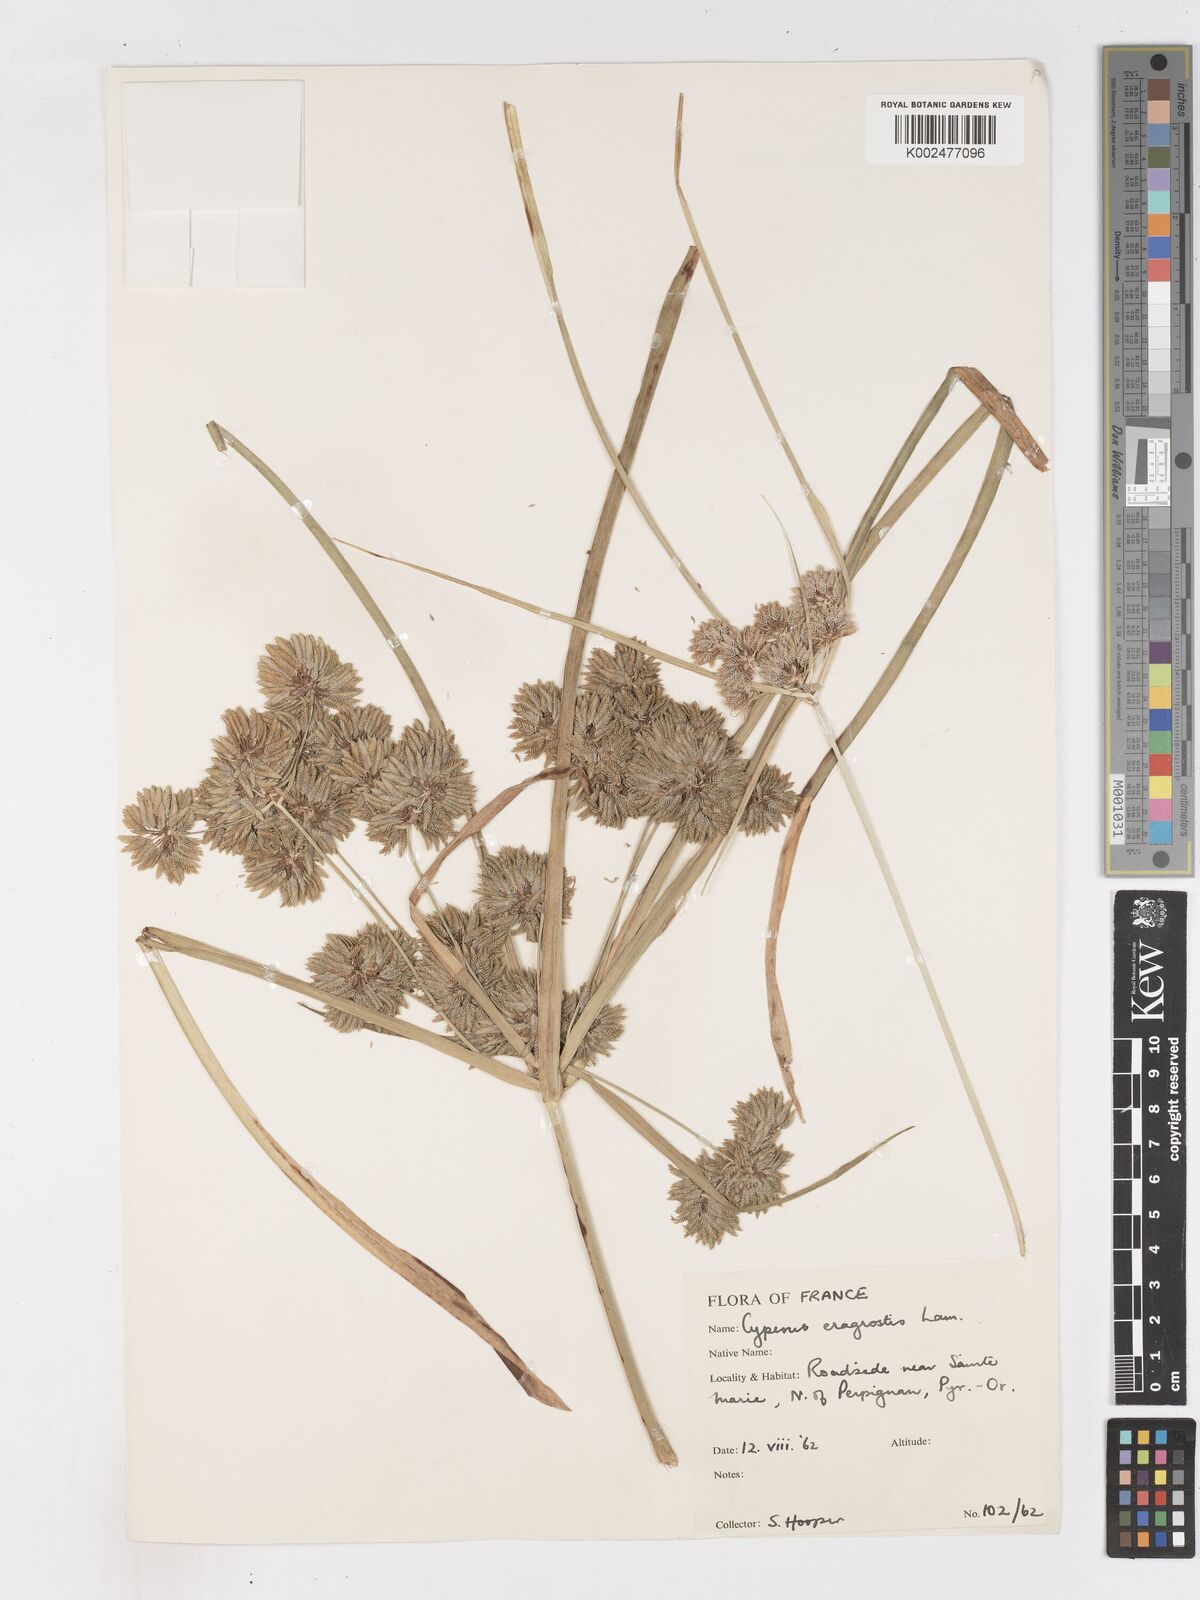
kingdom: Plantae
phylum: Tracheophyta
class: Liliopsida
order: Poales
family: Cyperaceae
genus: Cyperus
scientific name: Cyperus eragrostis
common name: Tall flatsedge
